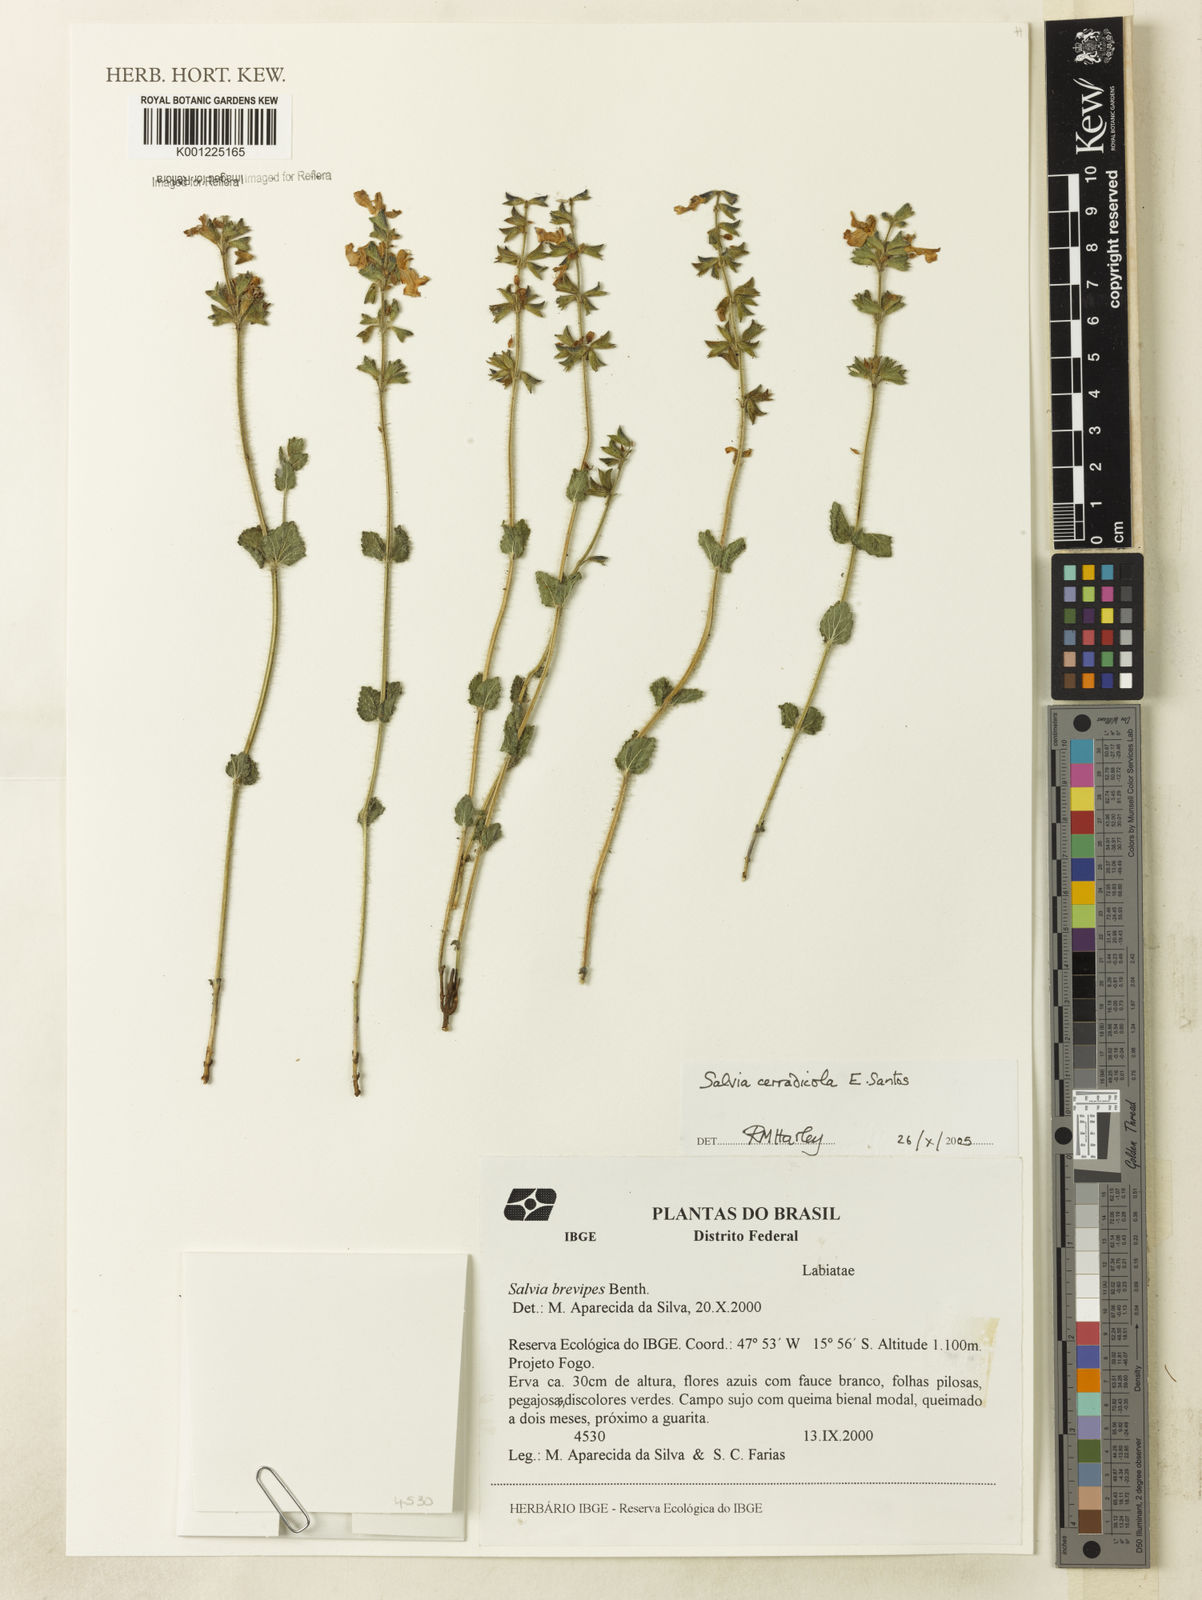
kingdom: Plantae
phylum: Tracheophyta
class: Magnoliopsida
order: Lamiales
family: Lamiaceae
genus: Salvia
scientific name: Salvia cerradicola
